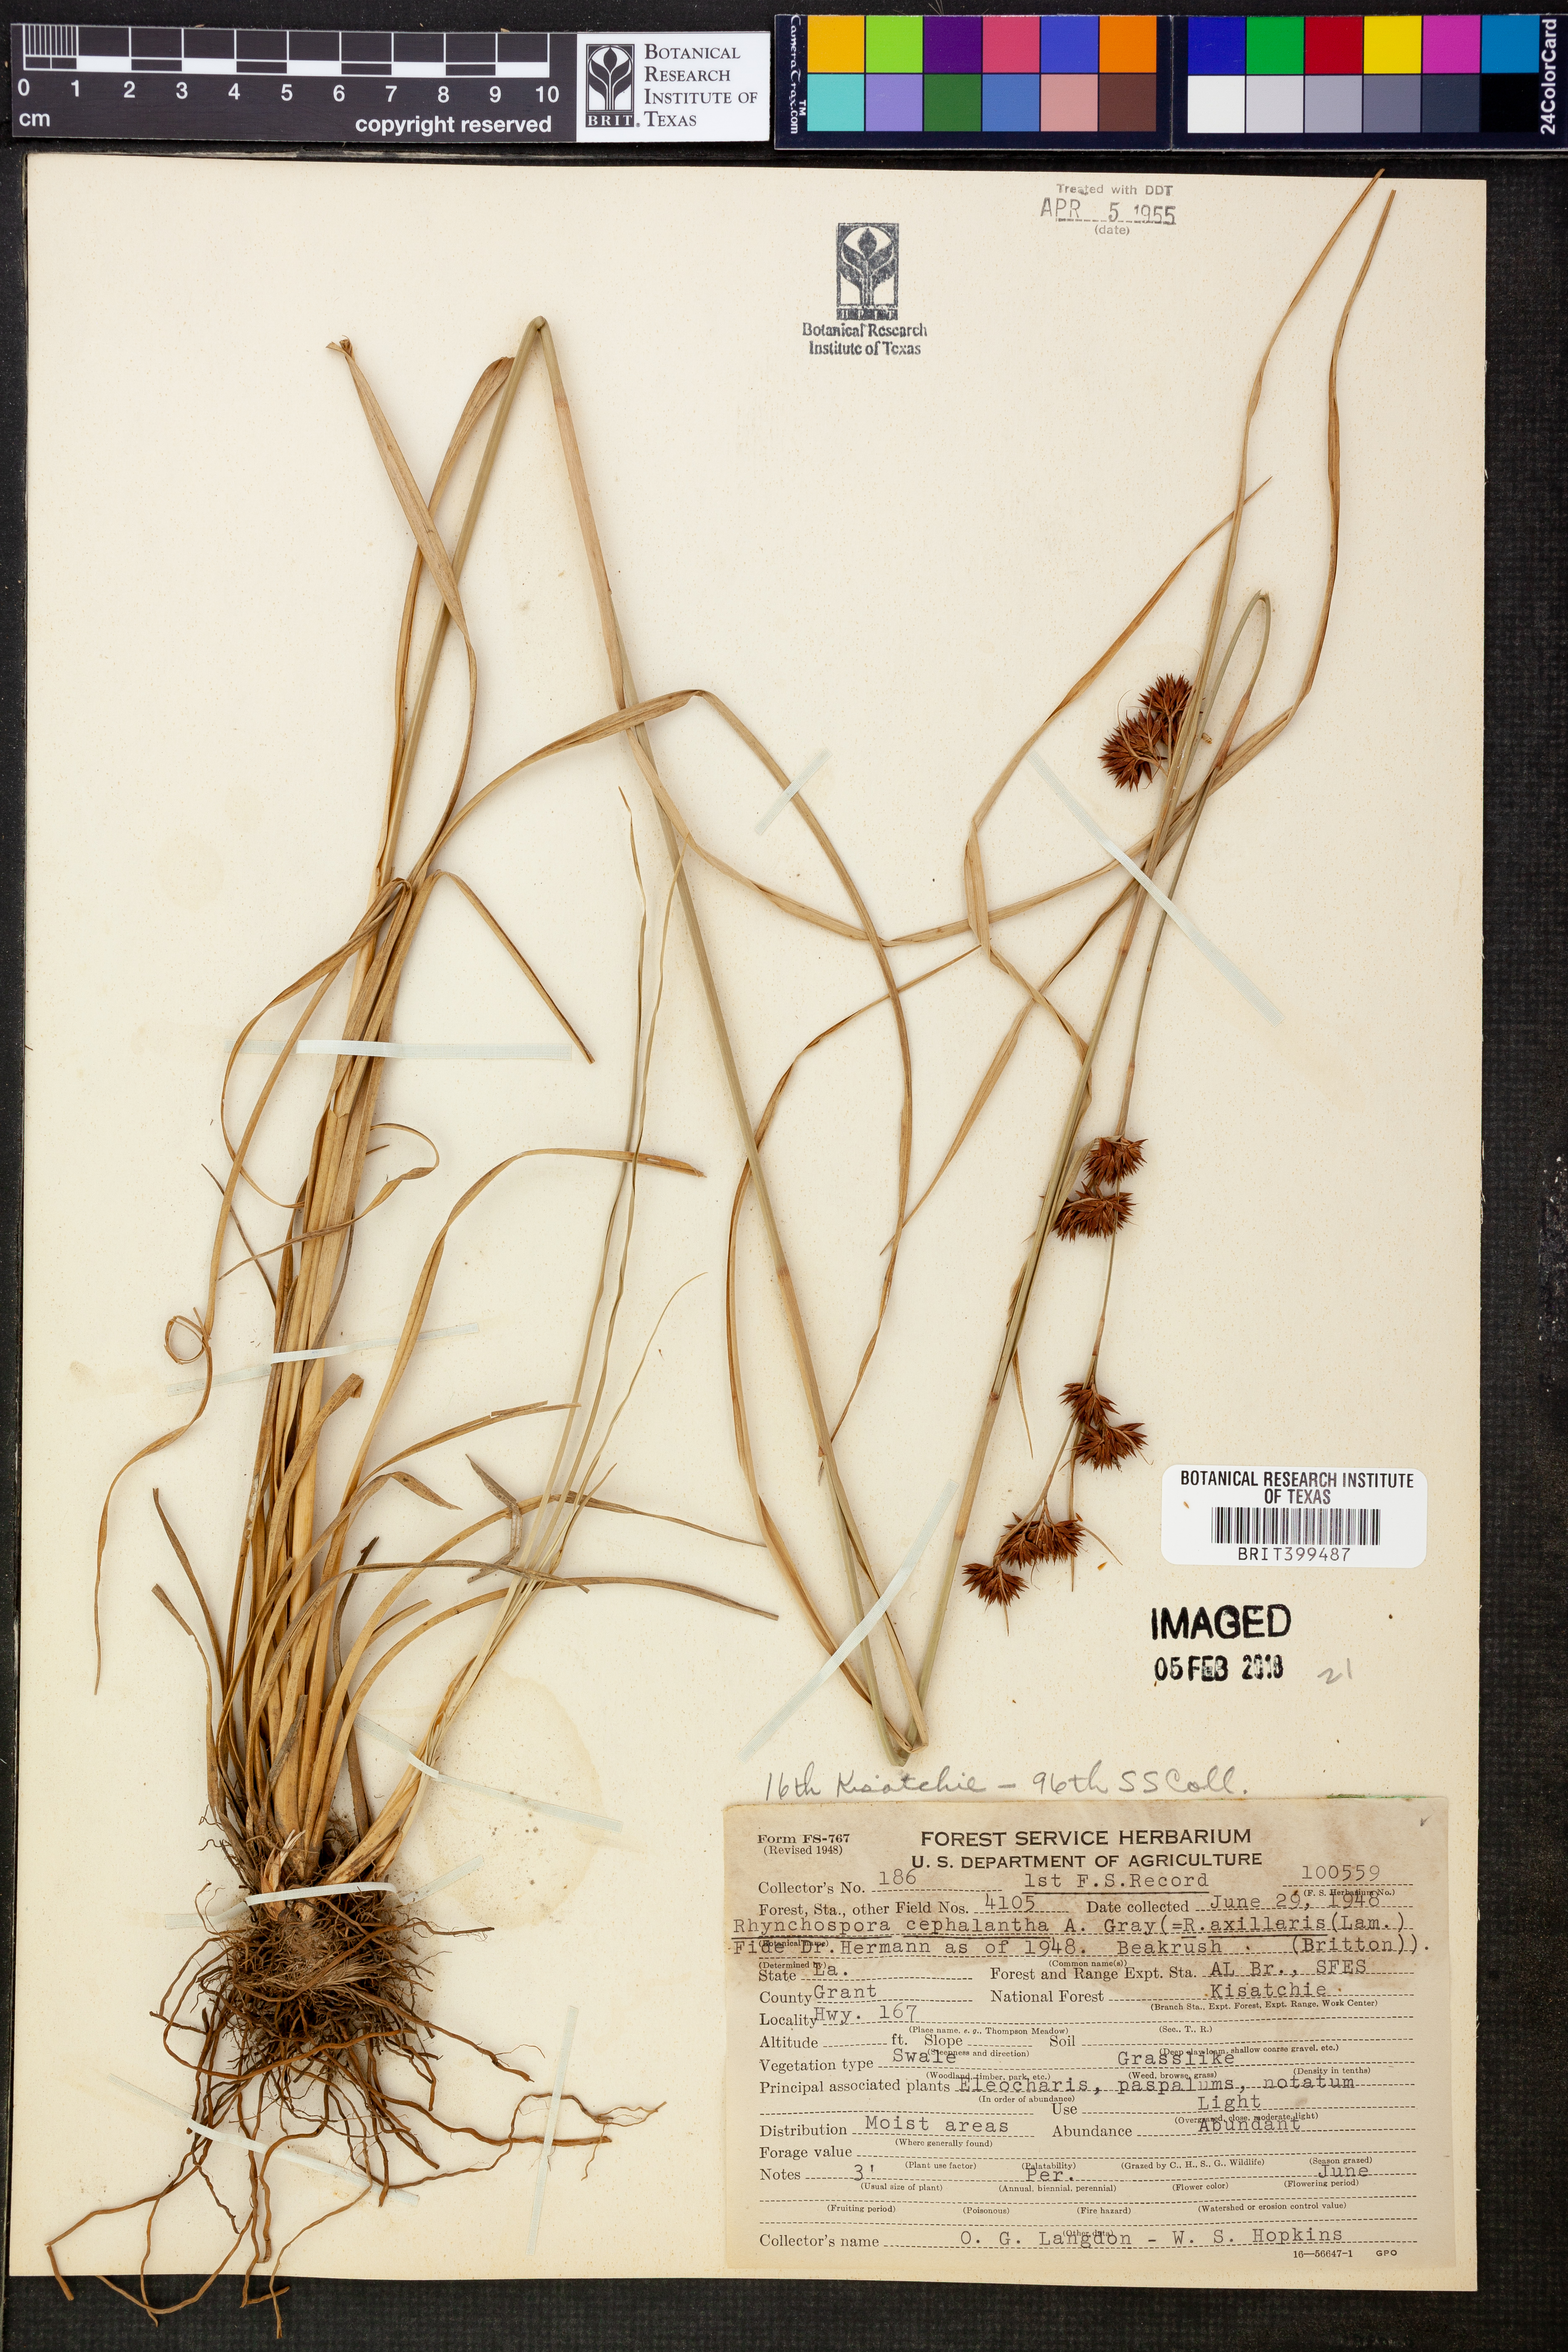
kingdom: Plantae
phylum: Tracheophyta
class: Liliopsida
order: Poales
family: Cyperaceae
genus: Rhynchospora
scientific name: Rhynchospora glomerata
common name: Cluster beak sedge
